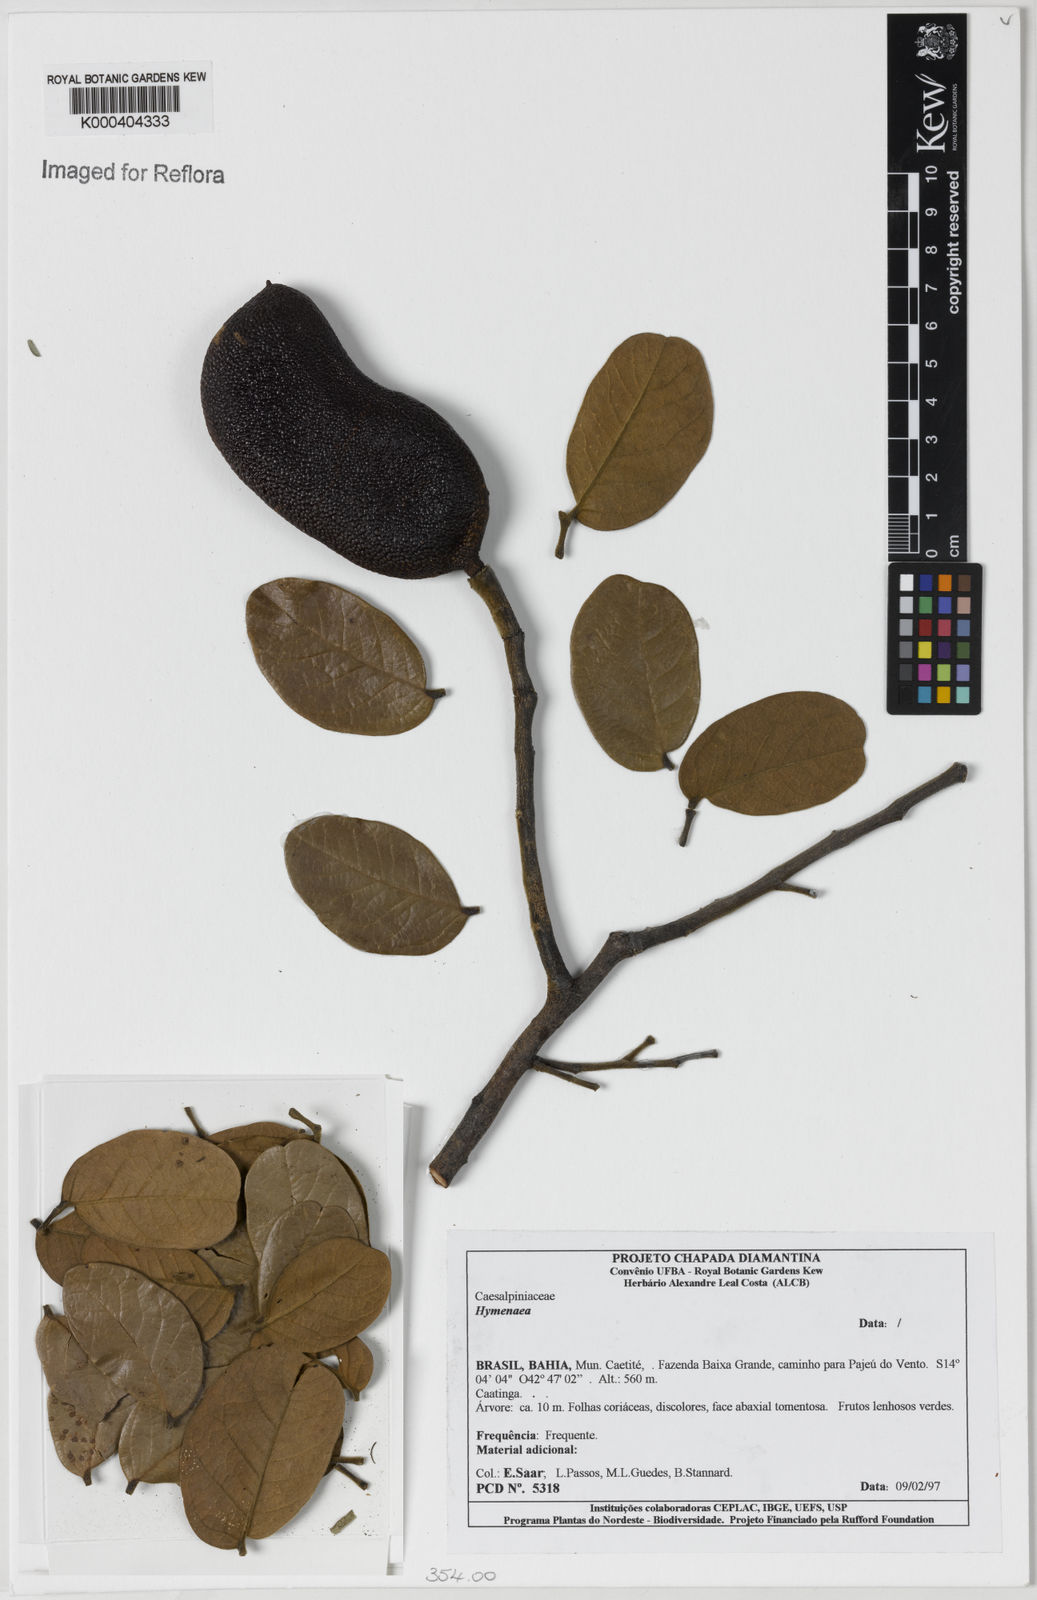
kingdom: Plantae
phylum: Tracheophyta
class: Magnoliopsida
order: Fabales
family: Fabaceae
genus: Hymenaea
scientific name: Hymenaea
